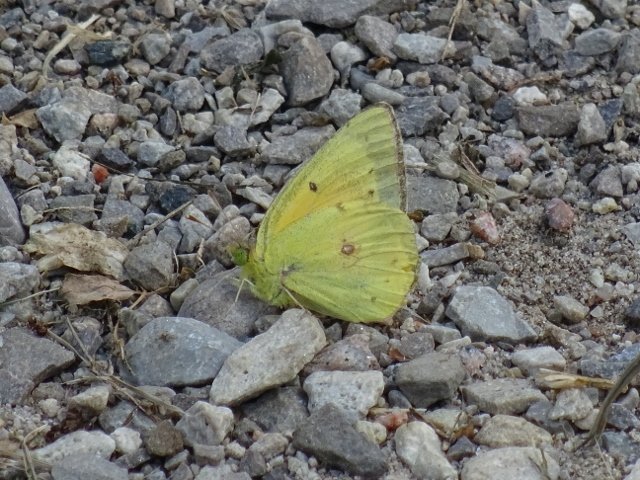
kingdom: Animalia
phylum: Arthropoda
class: Insecta
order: Lepidoptera
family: Pieridae
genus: Colias
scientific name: Colias eurytheme
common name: Orange Sulphur
